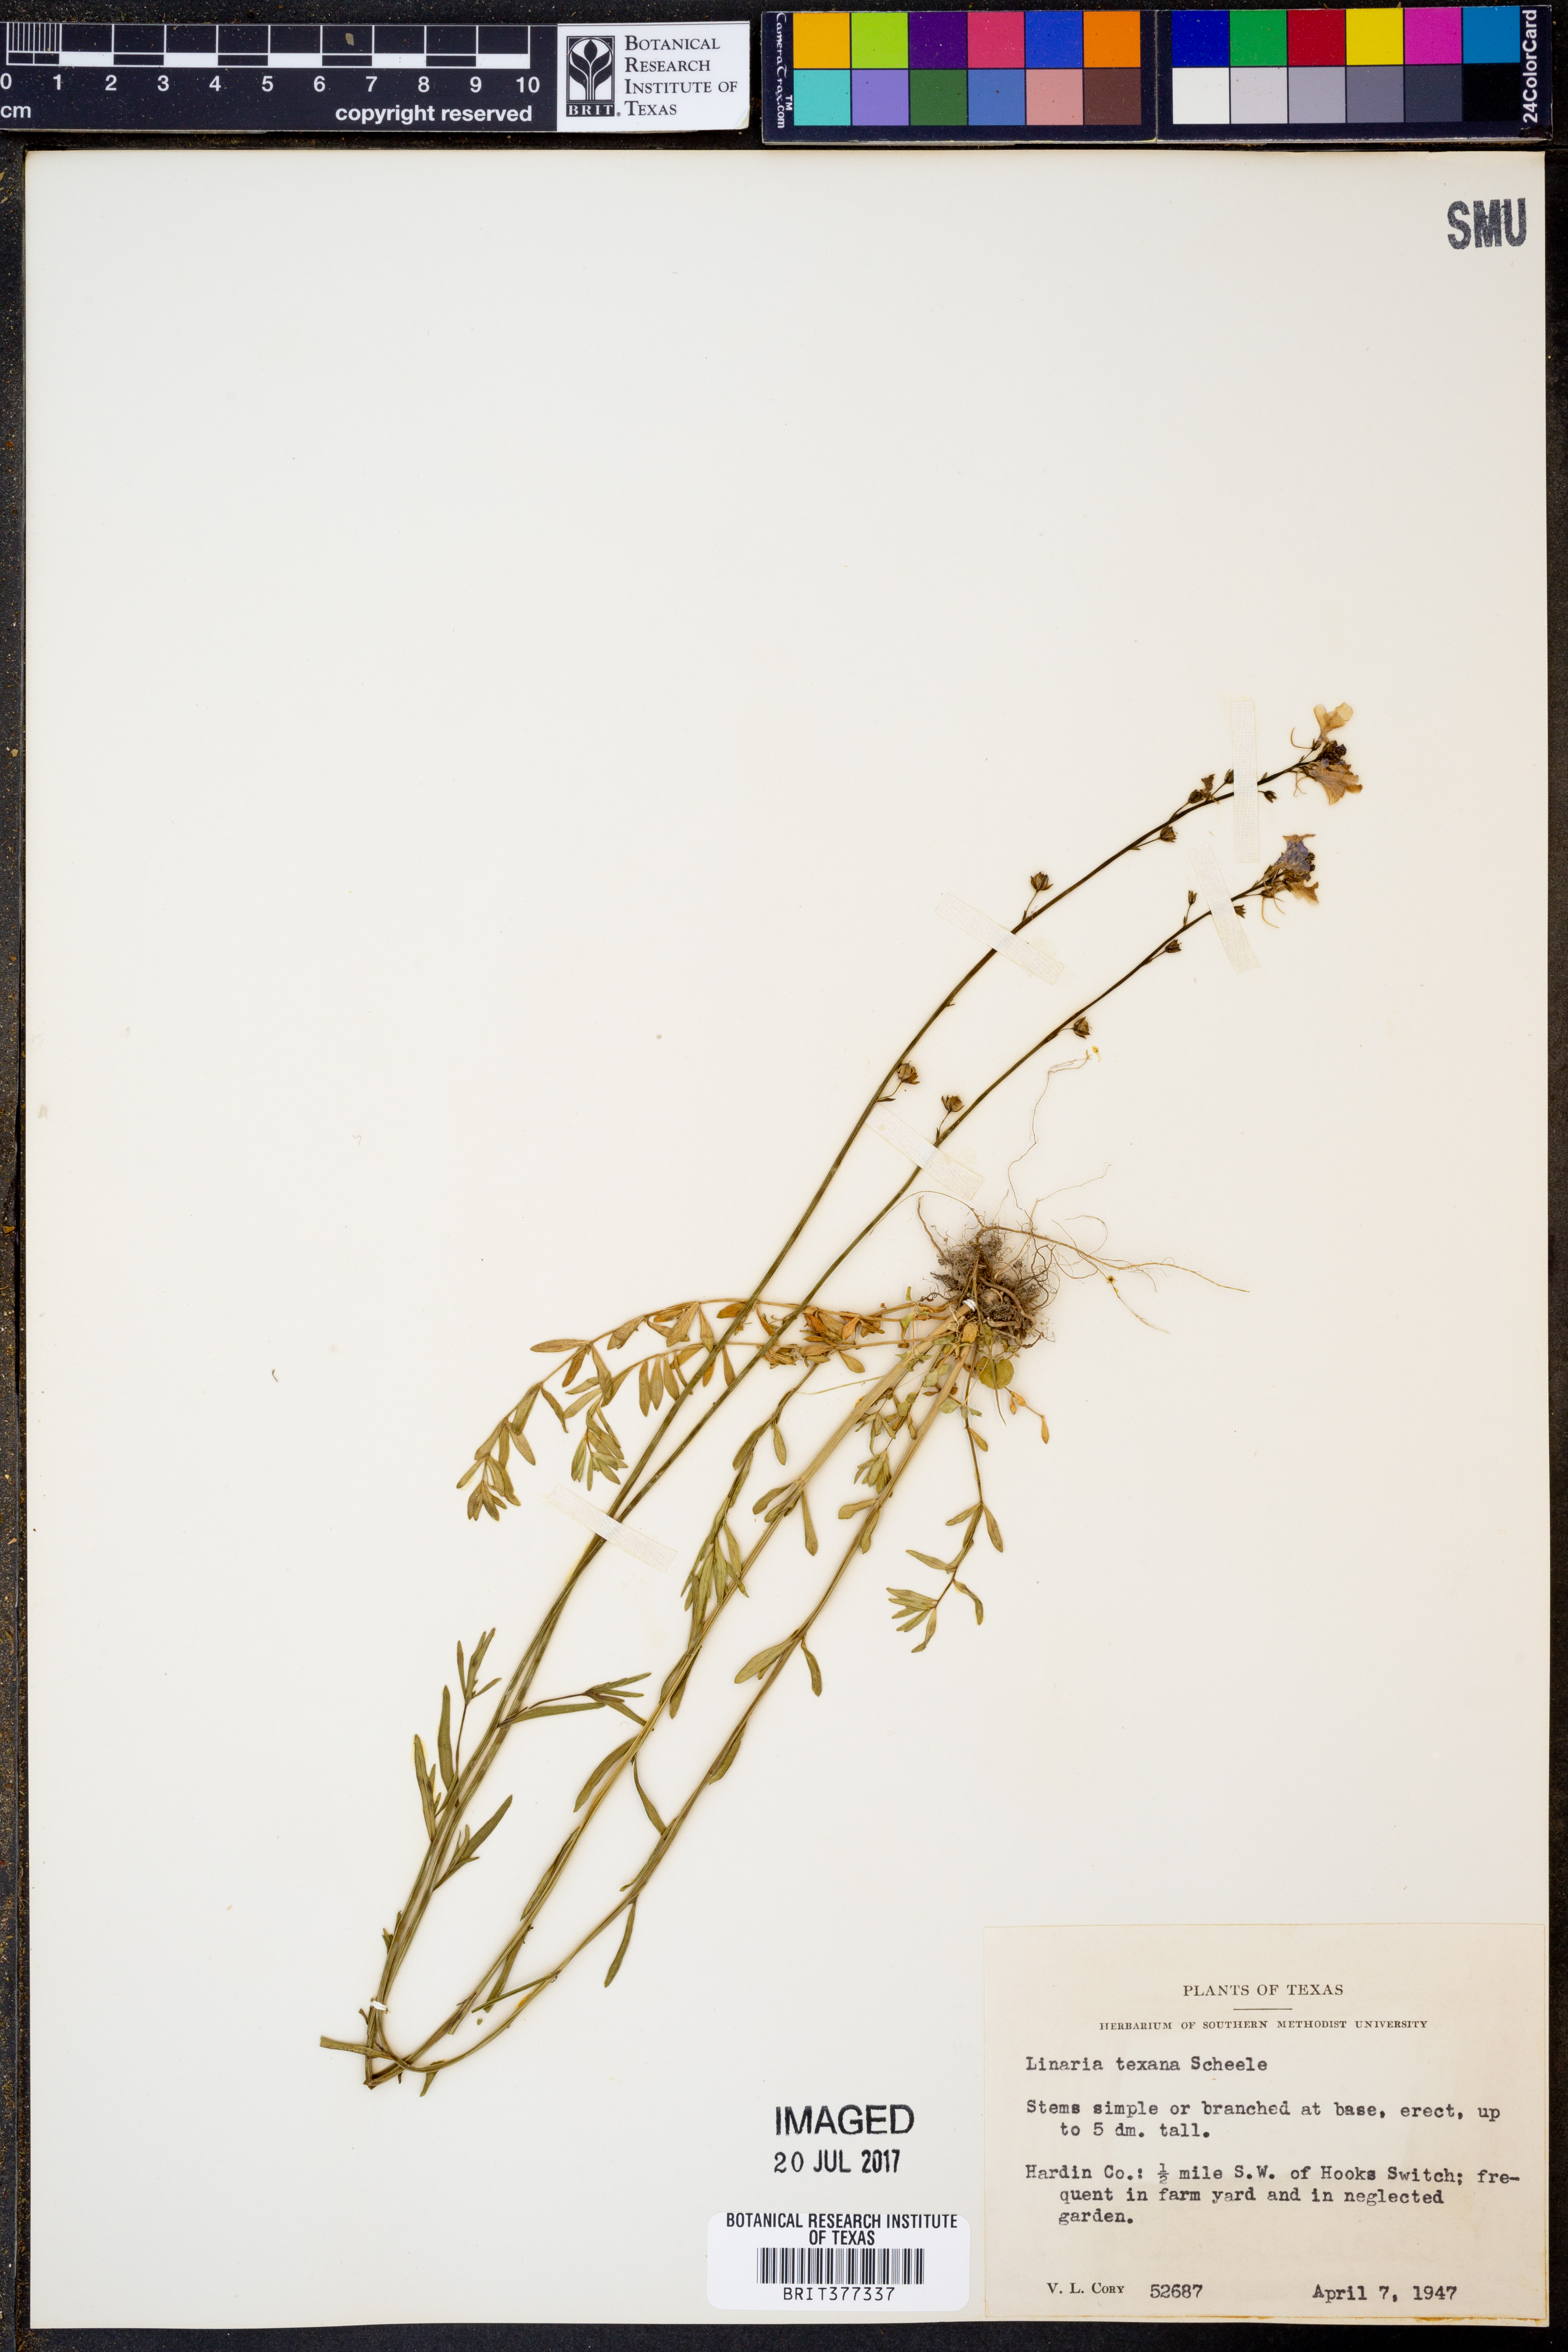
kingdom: Plantae
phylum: Tracheophyta
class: Magnoliopsida
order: Lamiales
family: Plantaginaceae
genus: Nuttallanthus
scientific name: Nuttallanthus texanus
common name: Texas toadflax
